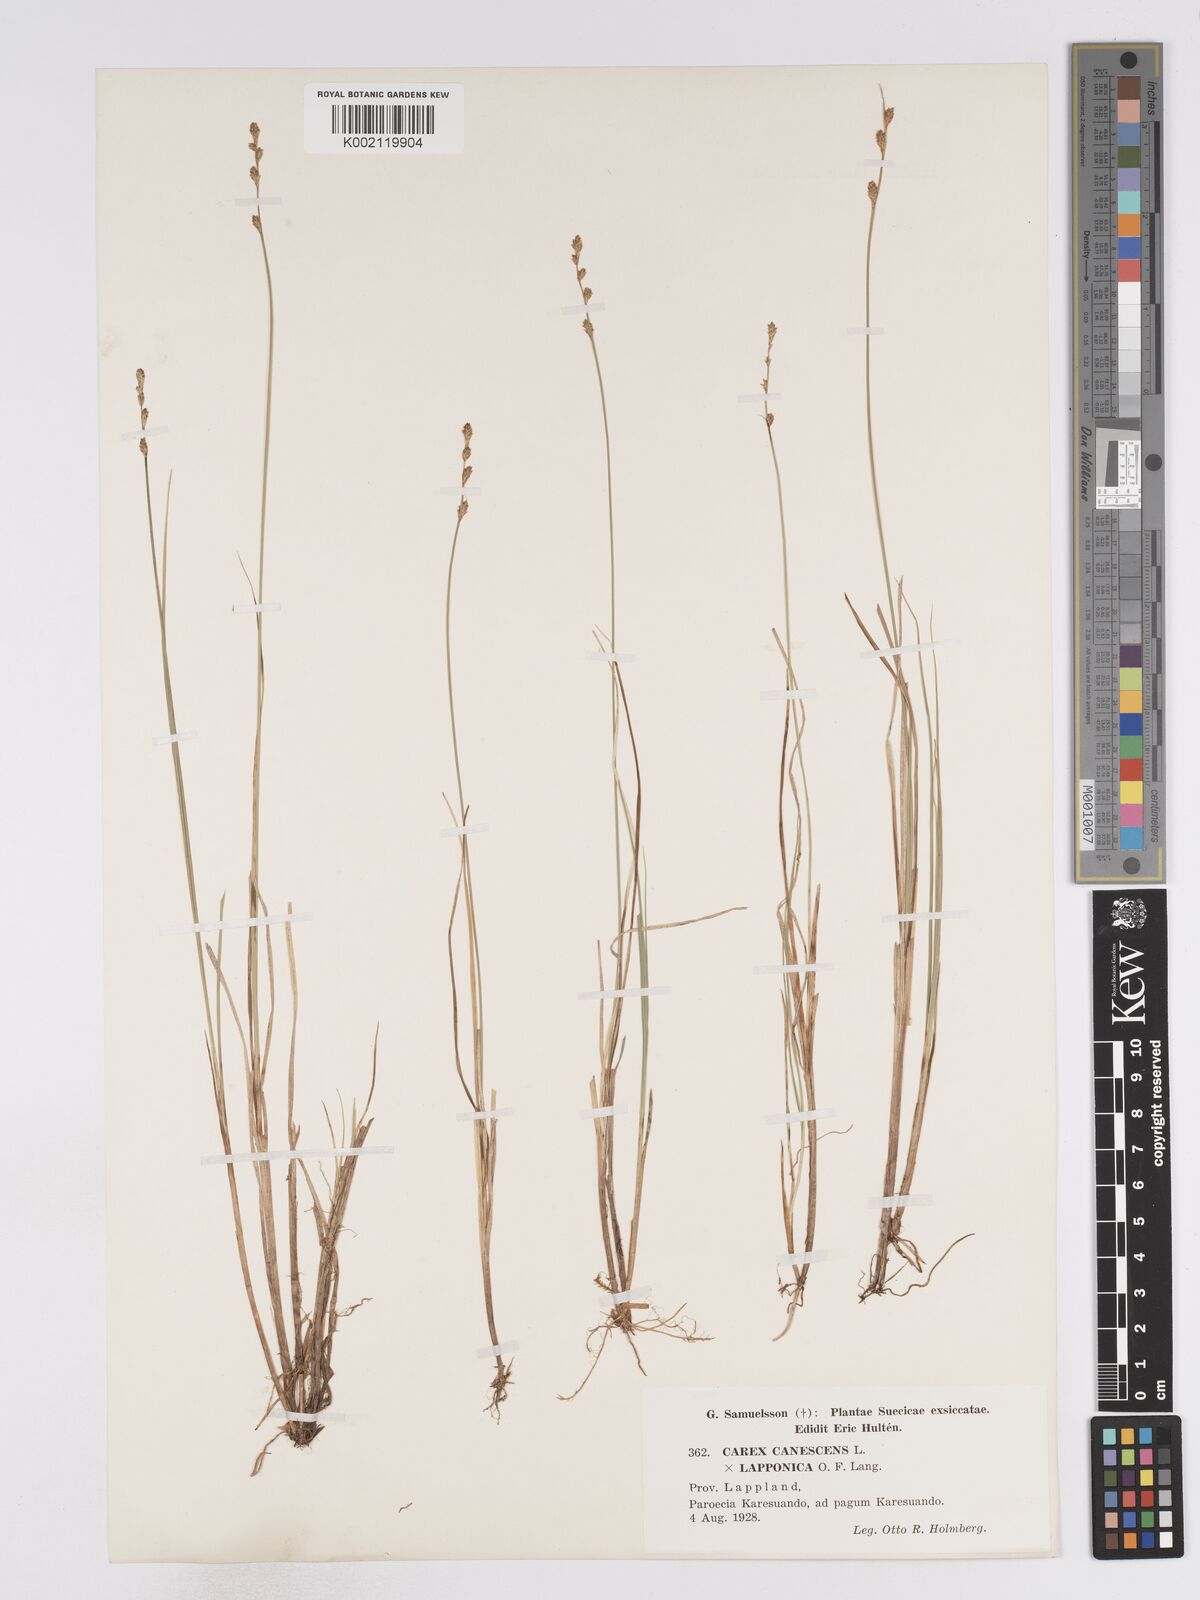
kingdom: Plantae
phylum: Tracheophyta
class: Liliopsida
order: Poales
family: Cyperaceae
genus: Carex
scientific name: Carex curta
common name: White sedge
